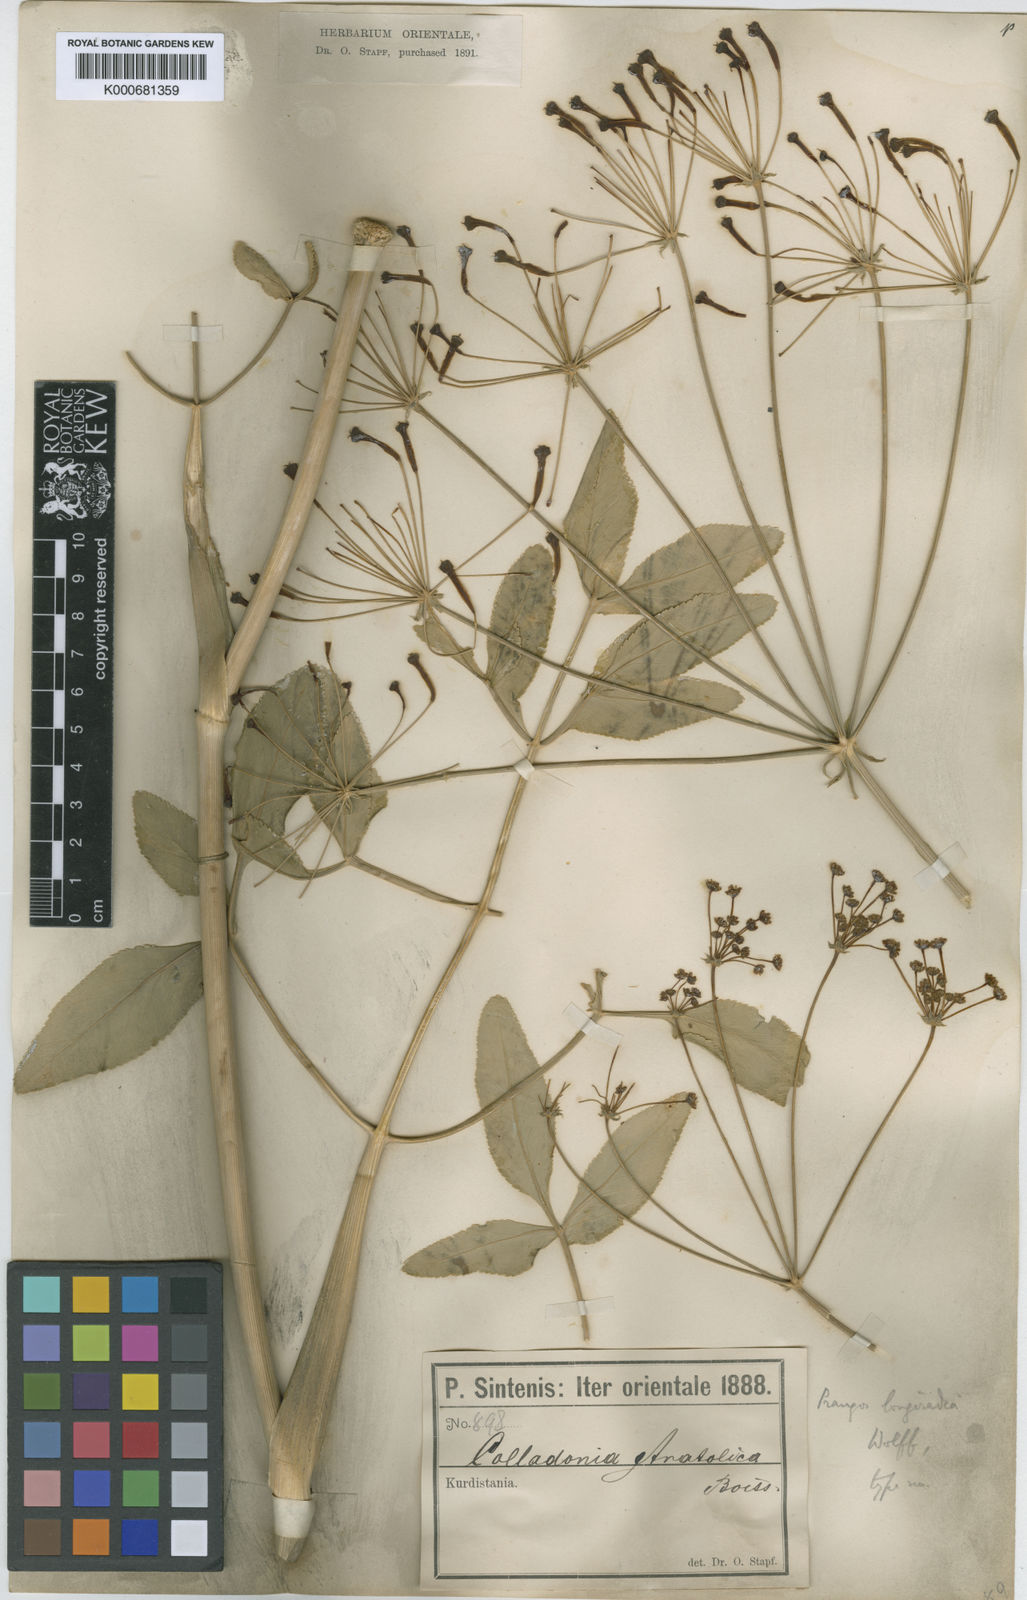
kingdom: Plantae
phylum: Tracheophyta
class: Magnoliopsida
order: Apiales
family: Apiaceae
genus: Heptaptera
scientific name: Heptaptera anatolica
